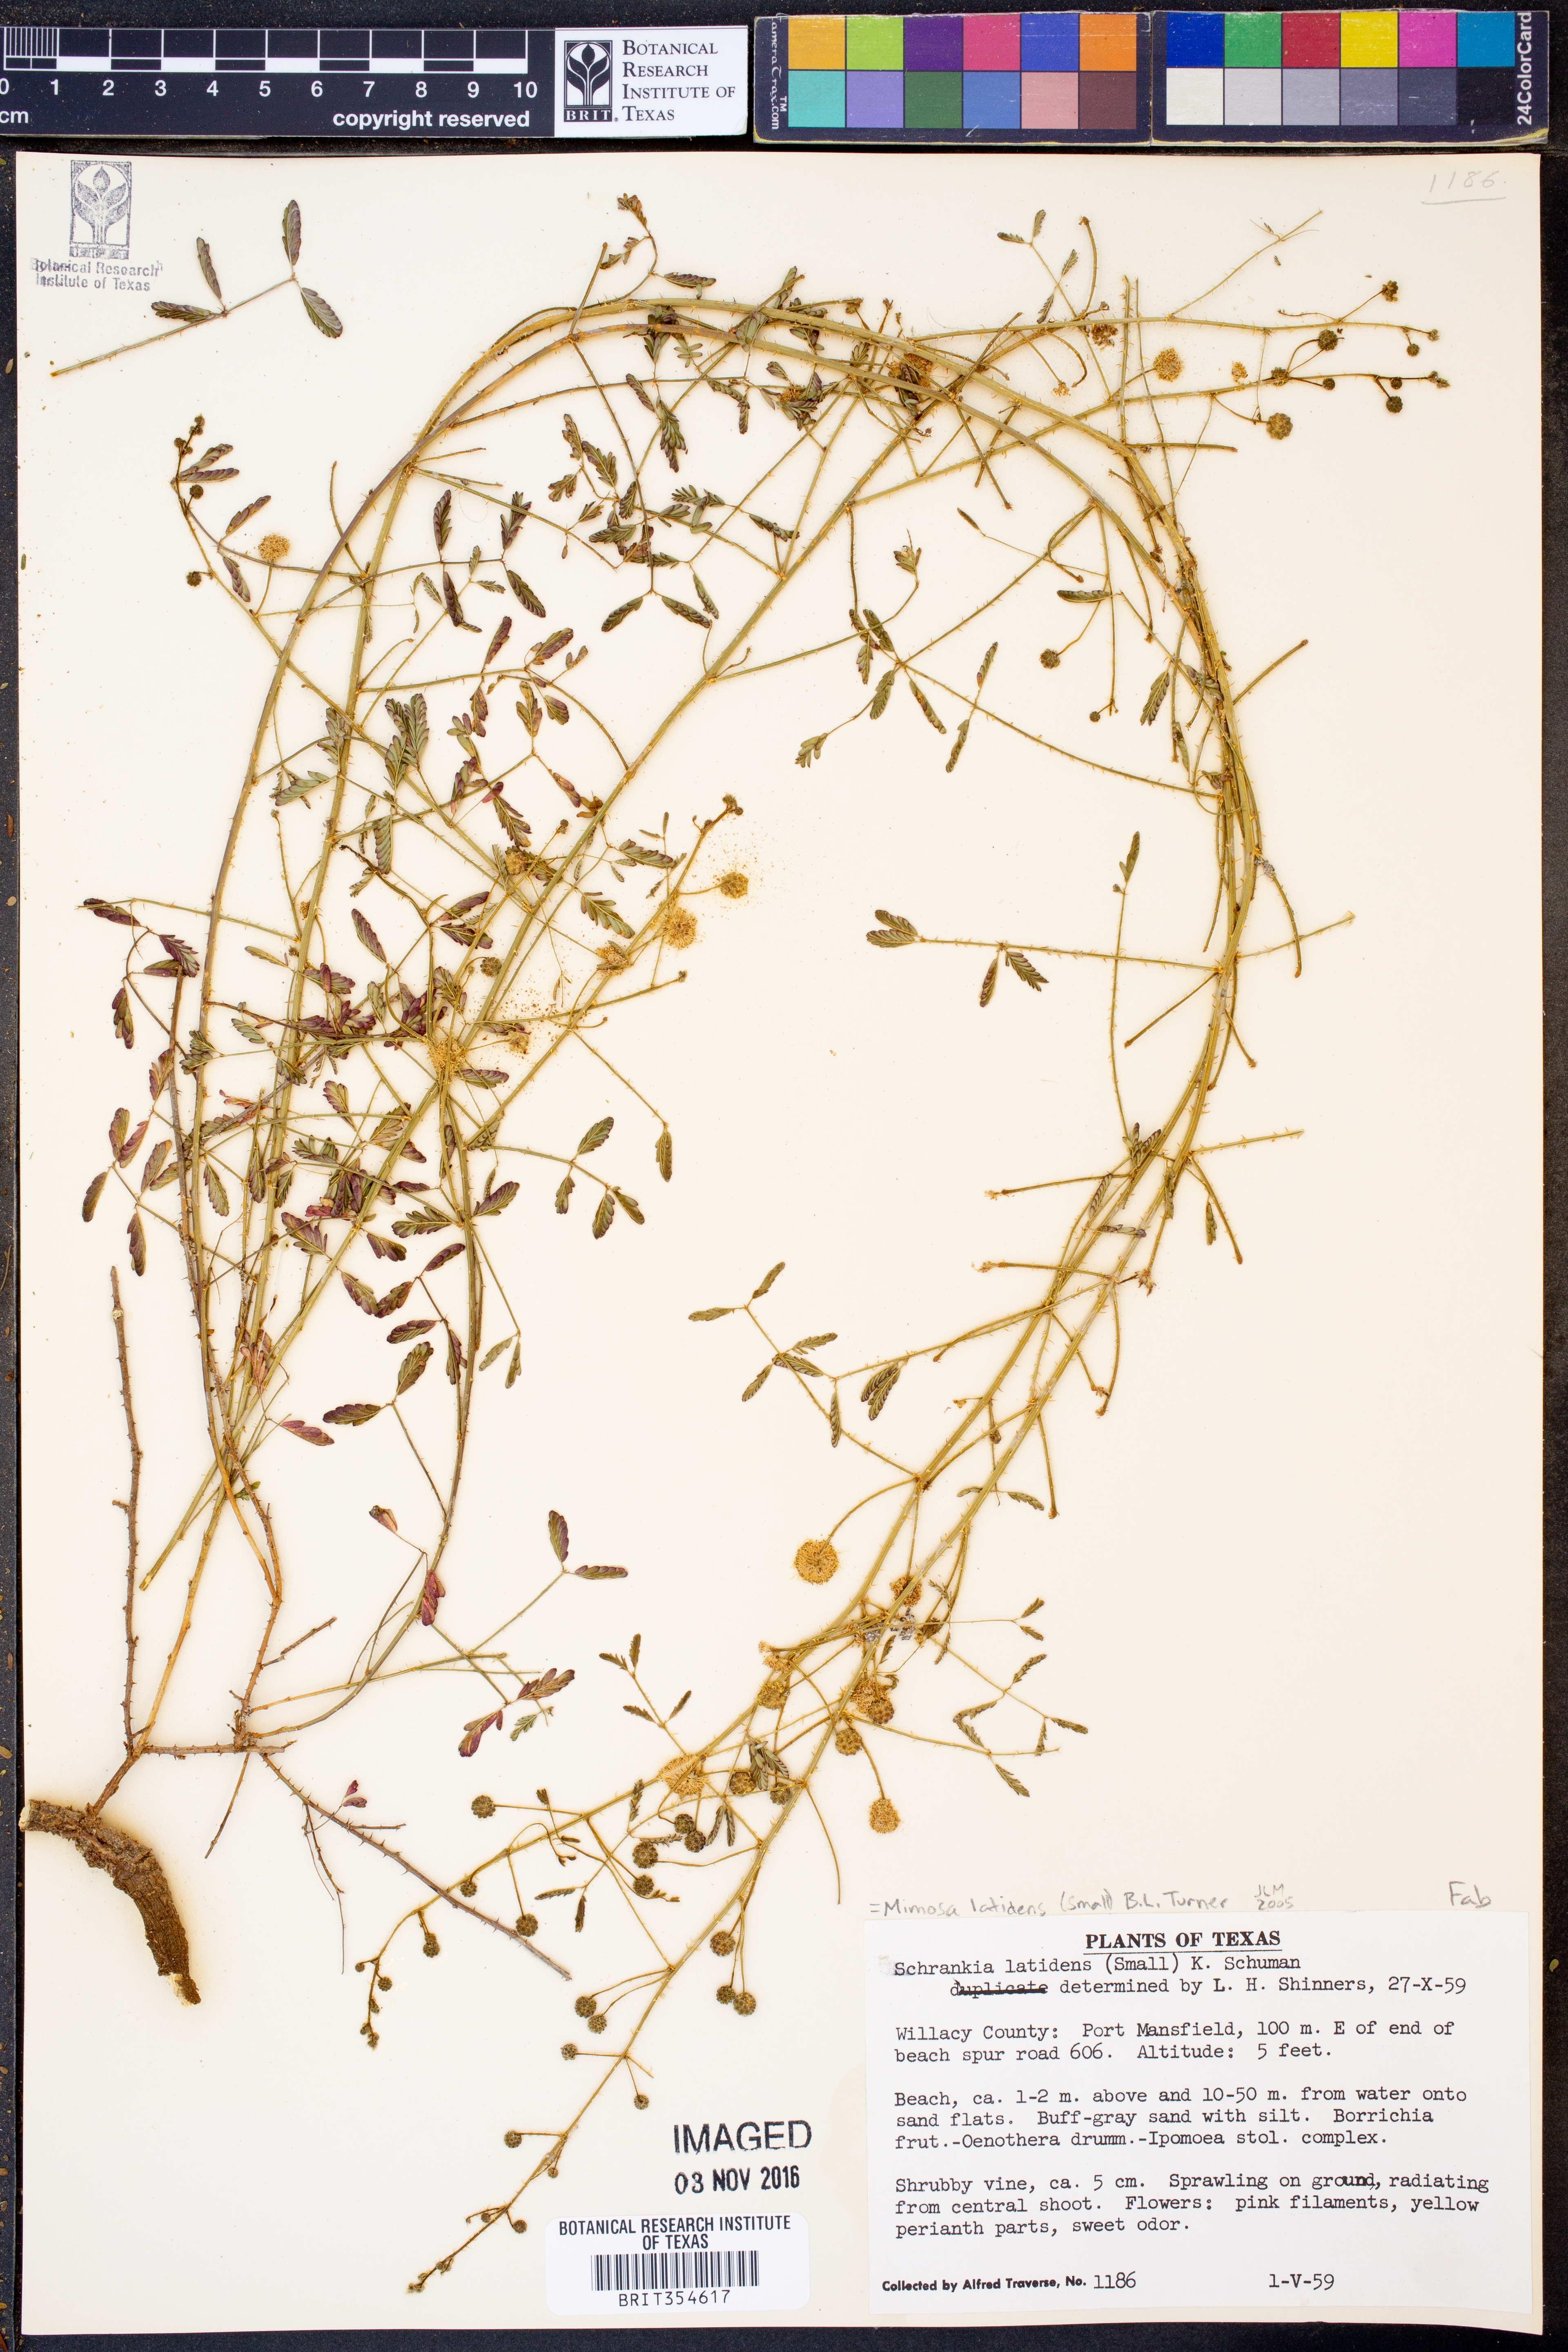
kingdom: Plantae
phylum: Tracheophyta
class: Magnoliopsida
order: Fabales
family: Fabaceae
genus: Mimosa
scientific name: Mimosa latidens
